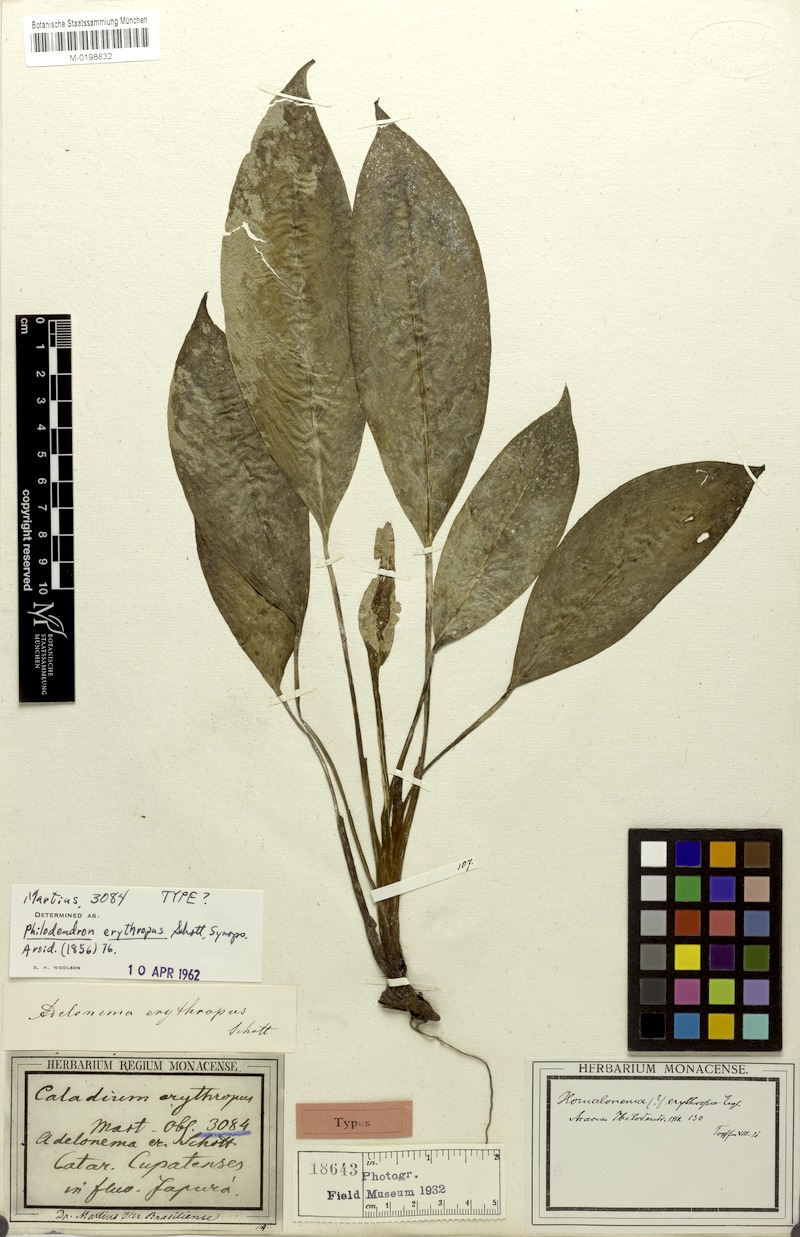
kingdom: Plantae
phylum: Tracheophyta
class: Liliopsida
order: Alismatales
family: Araceae
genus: Adelonema
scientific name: Adelonema erythropus
